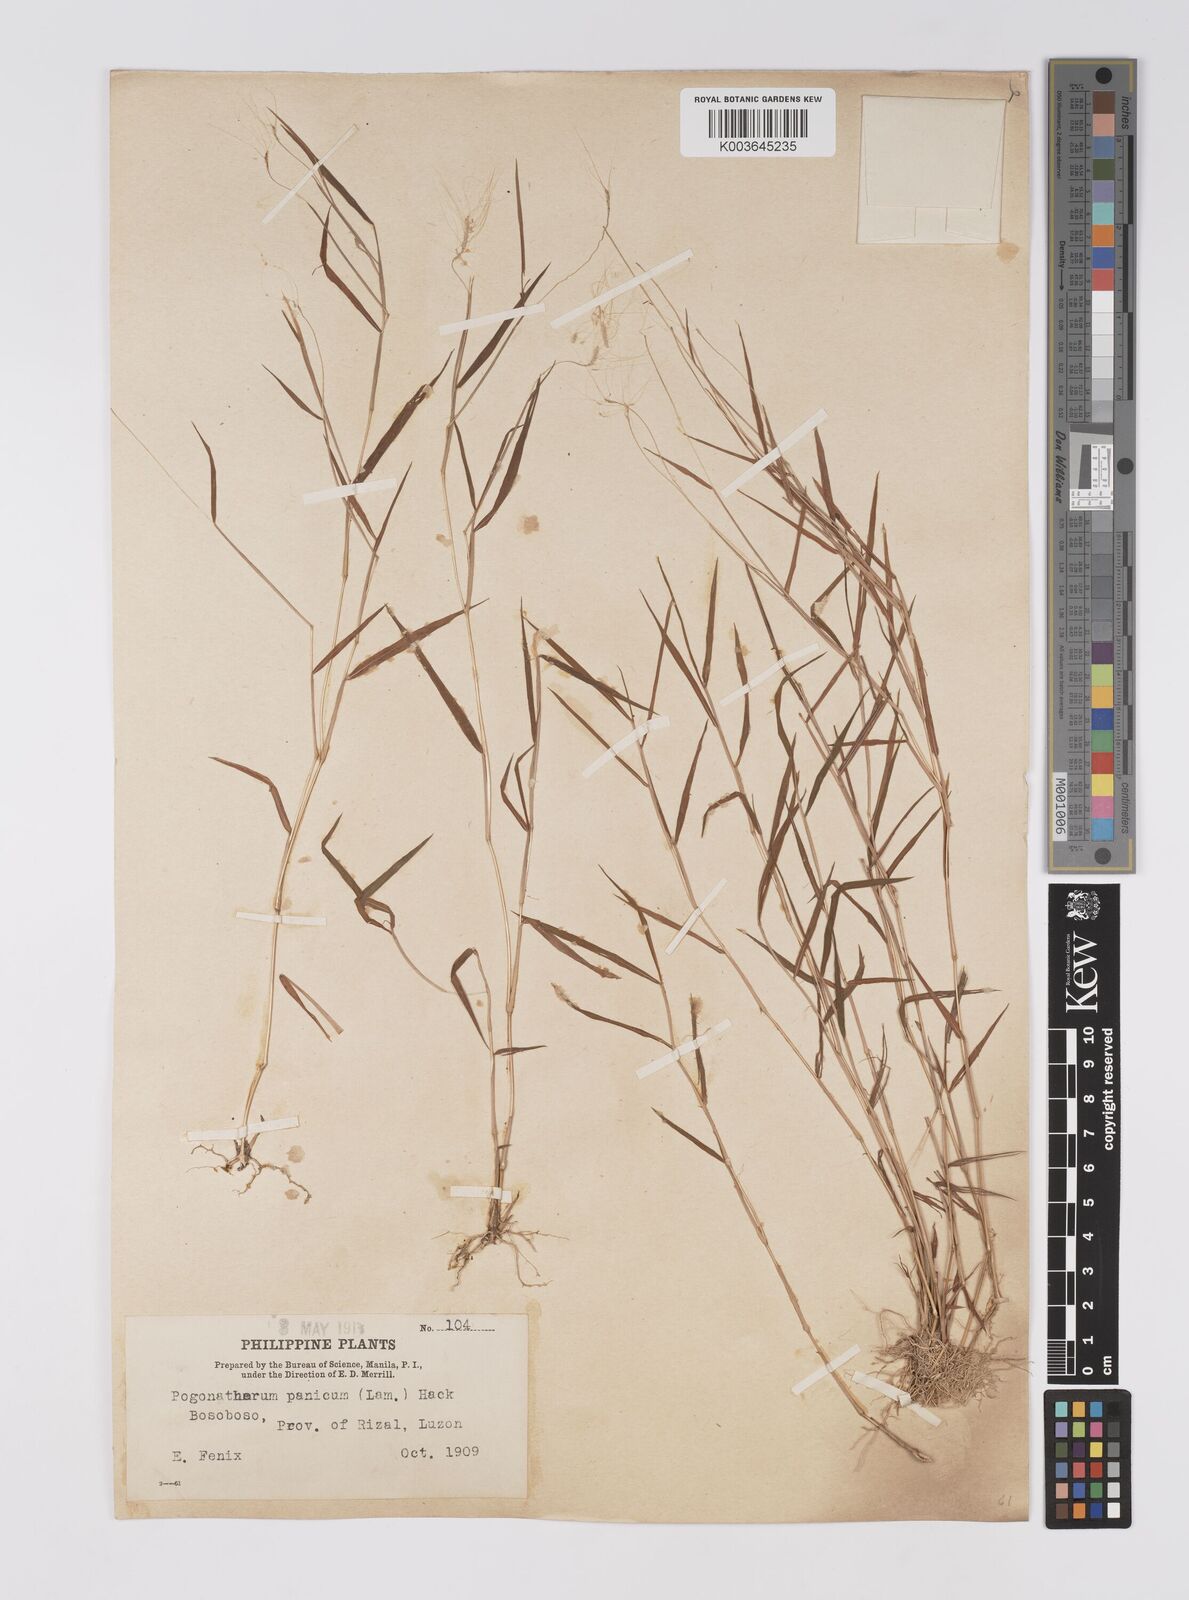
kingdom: Plantae
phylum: Tracheophyta
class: Liliopsida
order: Poales
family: Poaceae
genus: Pogonatherum
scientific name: Pogonatherum crinitum
